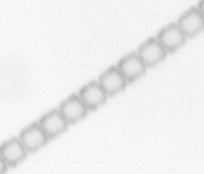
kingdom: Chromista
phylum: Ochrophyta
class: Bacillariophyceae
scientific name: Bacillariophyceae
